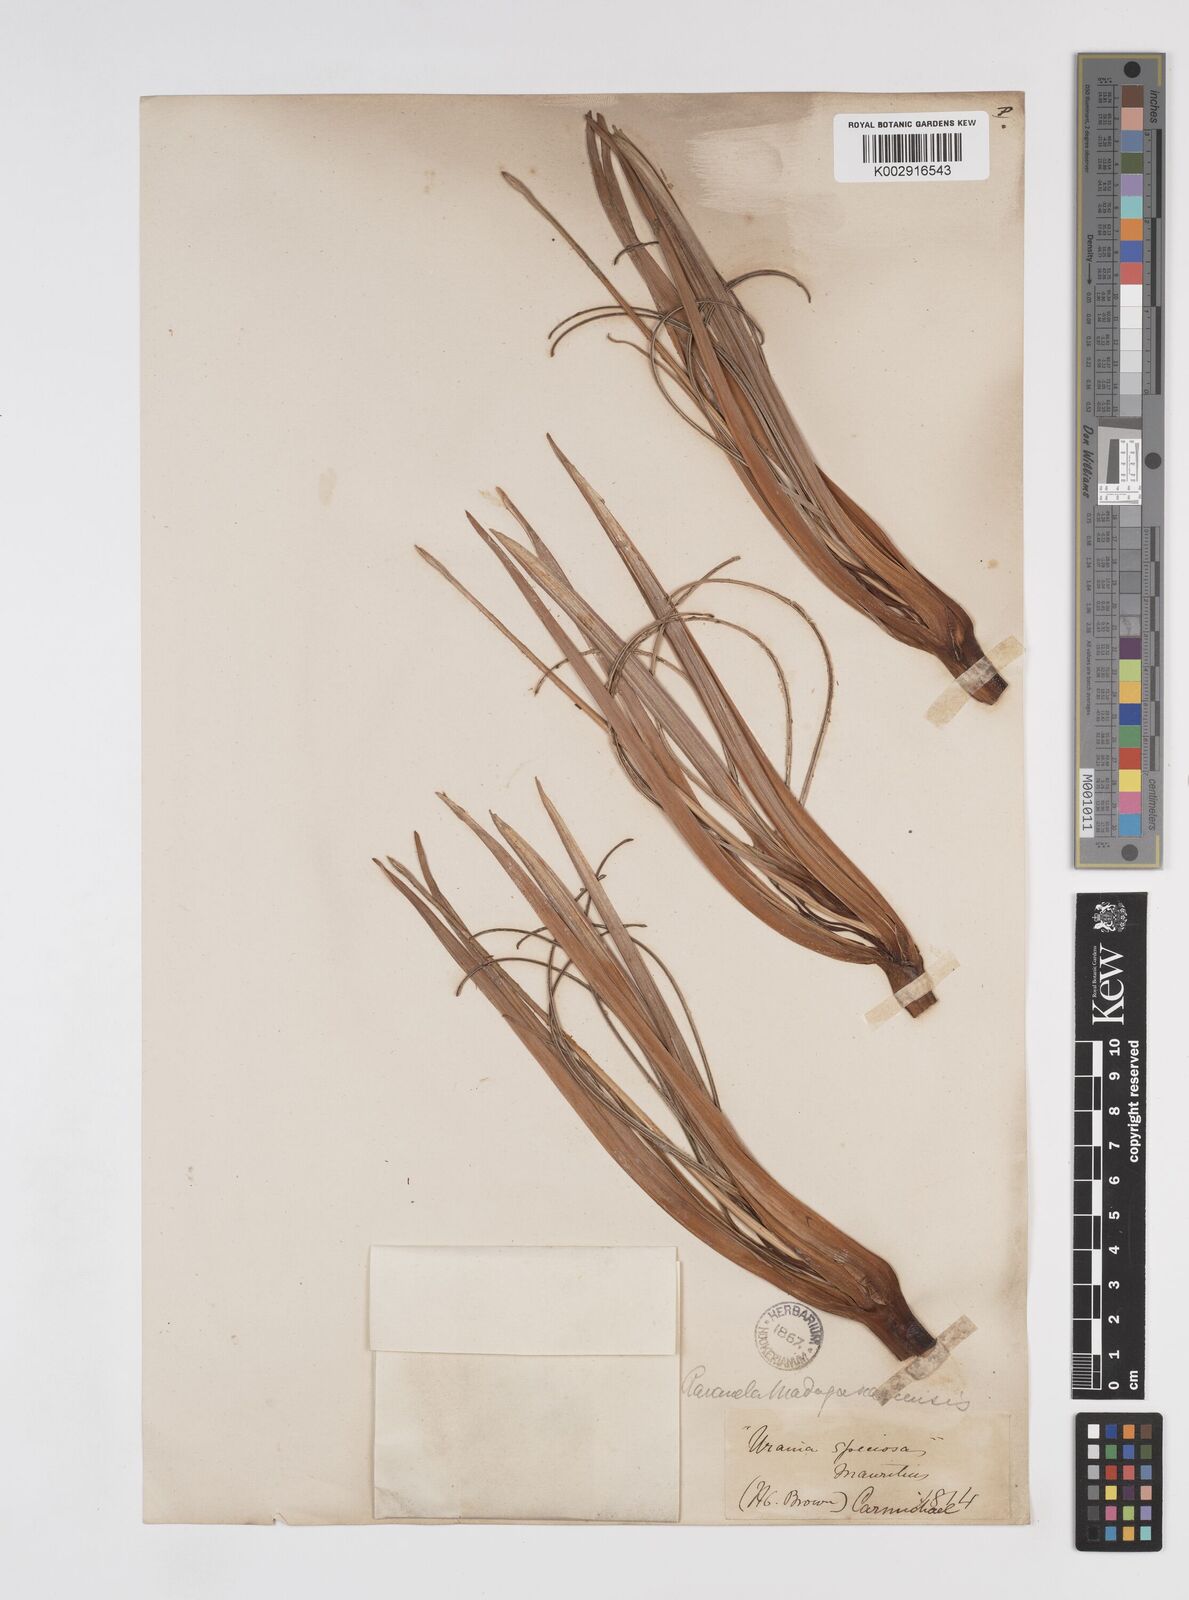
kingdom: Plantae
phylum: Tracheophyta
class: Liliopsida
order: Zingiberales
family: Strelitziaceae
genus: Ravenala
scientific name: Ravenala madagascariensis
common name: Traveler's-palm
